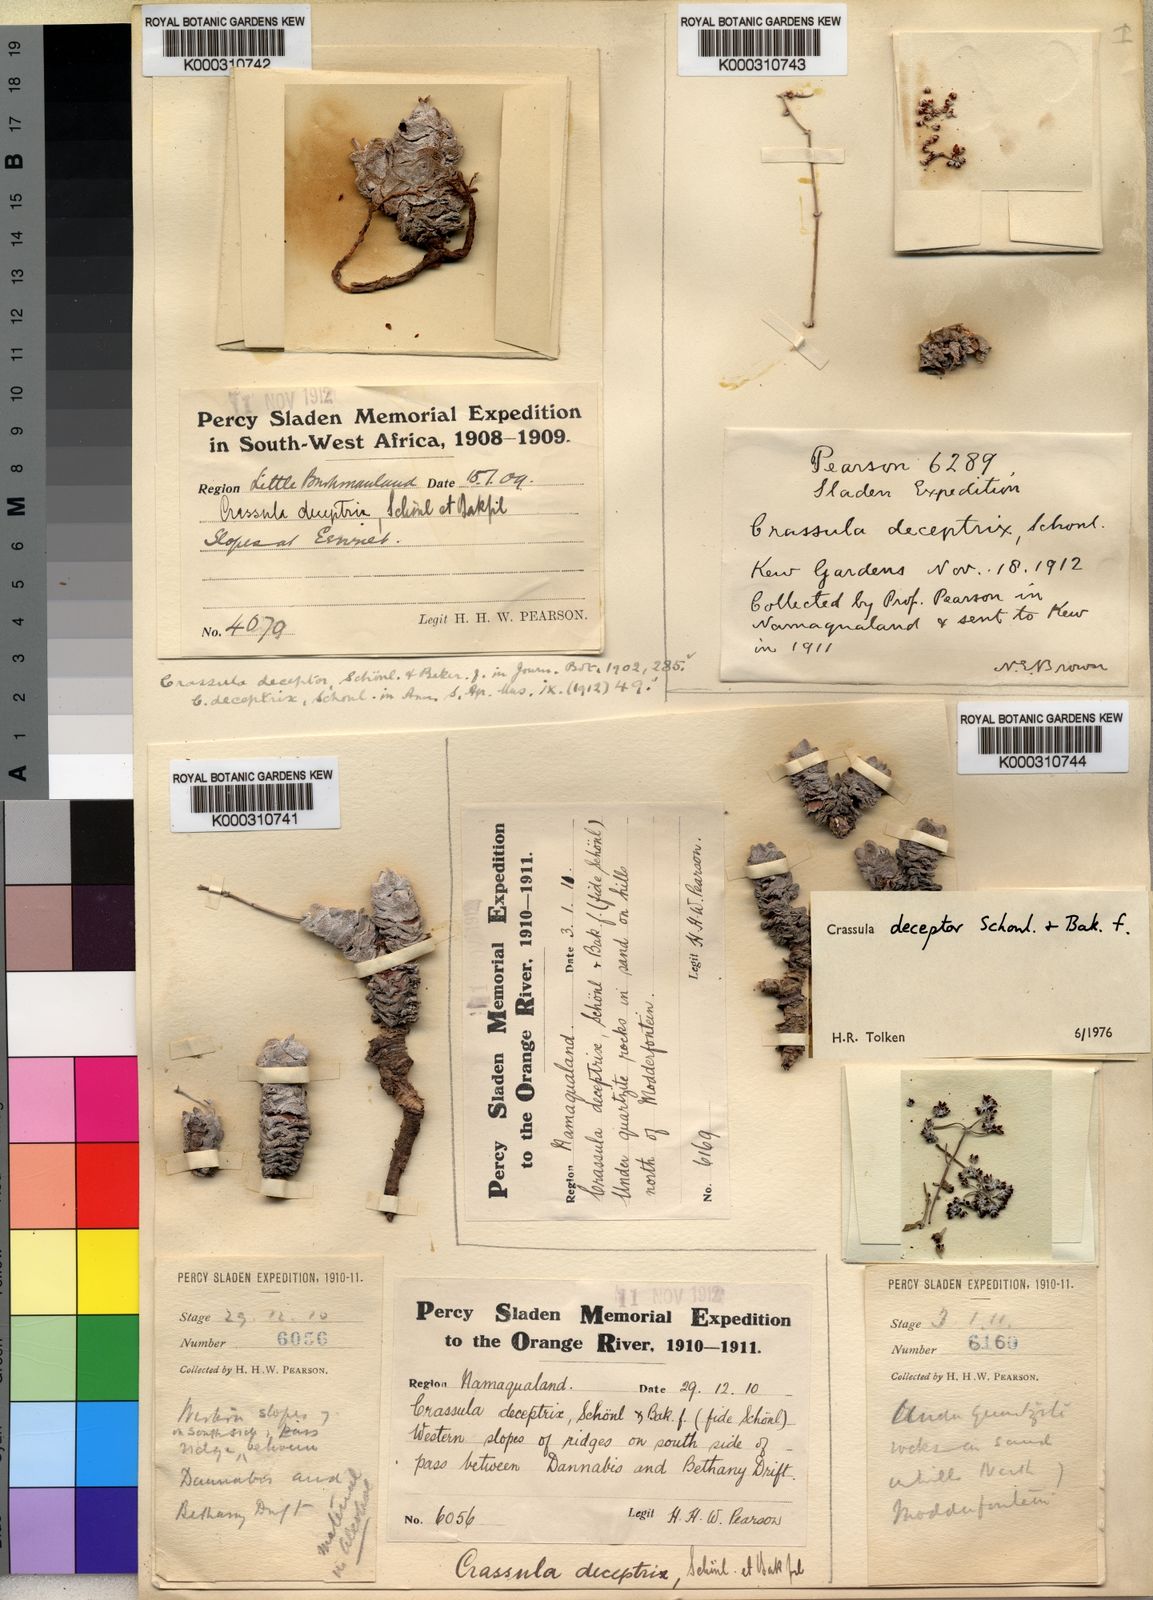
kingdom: Plantae
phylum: Tracheophyta
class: Magnoliopsida
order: Saxifragales
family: Crassulaceae
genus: Crassula
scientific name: Crassula
